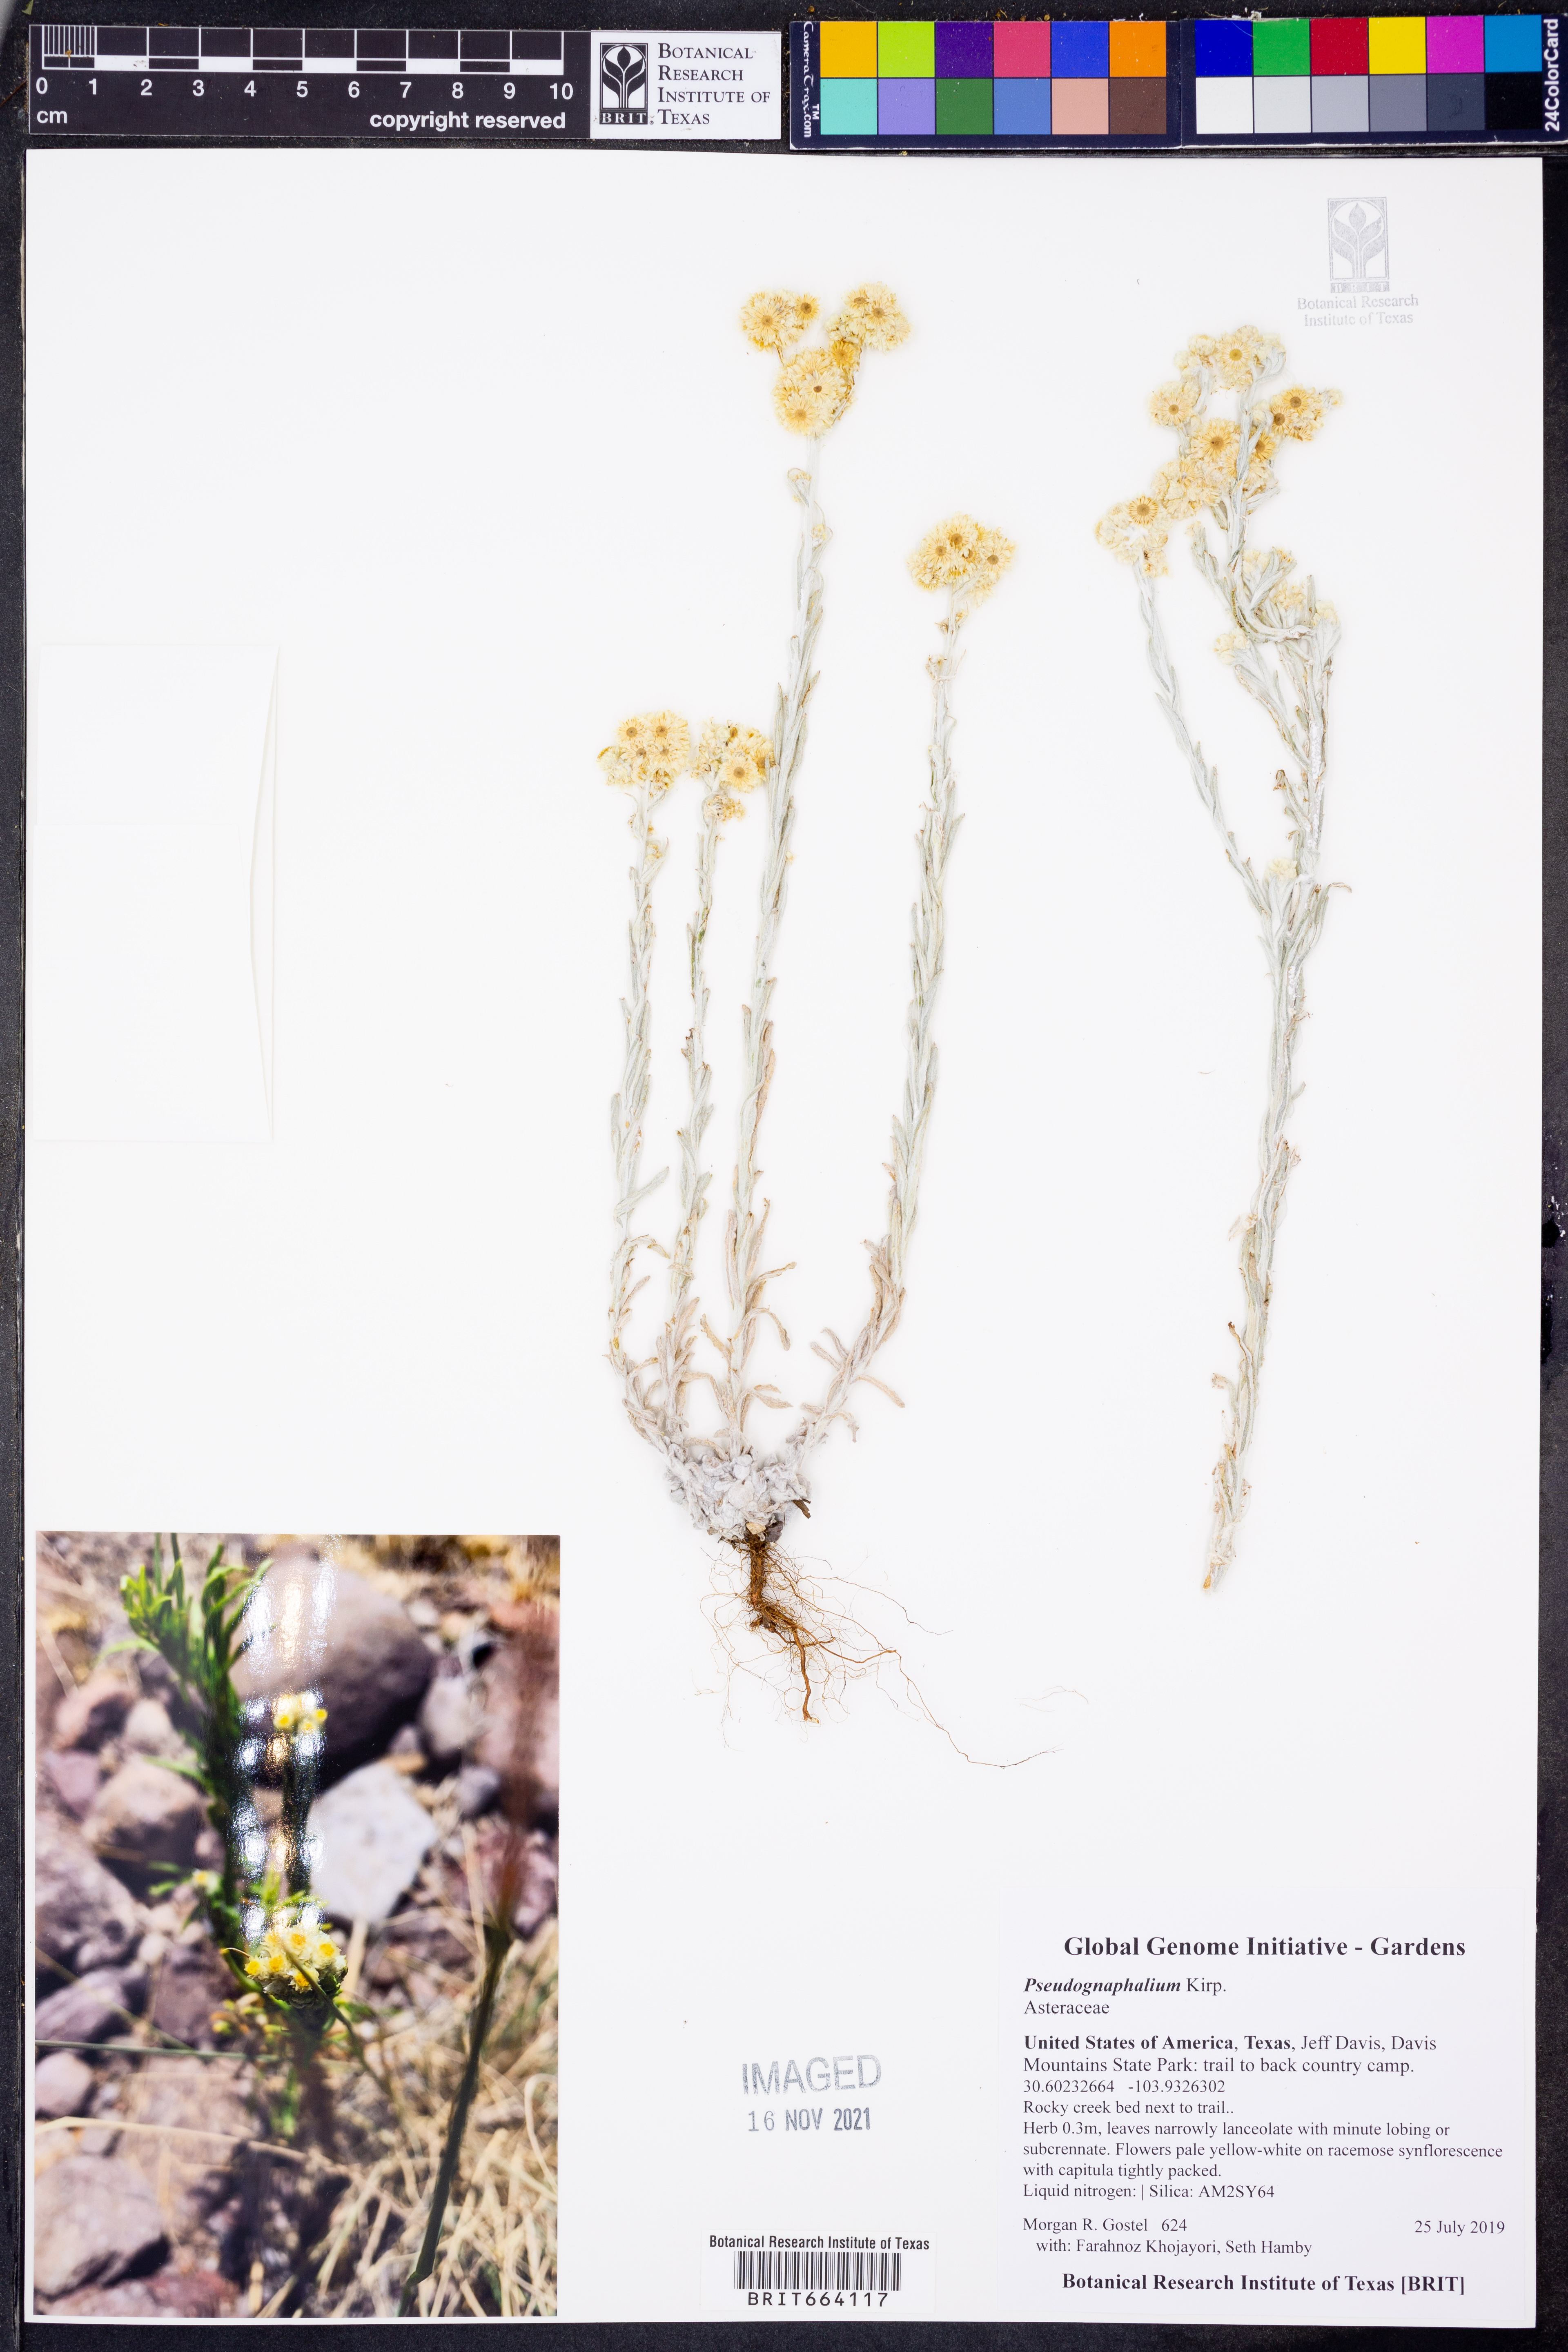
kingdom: Plantae
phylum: Tracheophyta
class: Magnoliopsida
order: Asterales
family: Asteraceae
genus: Pseudognaphalium
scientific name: Pseudognaphalium
